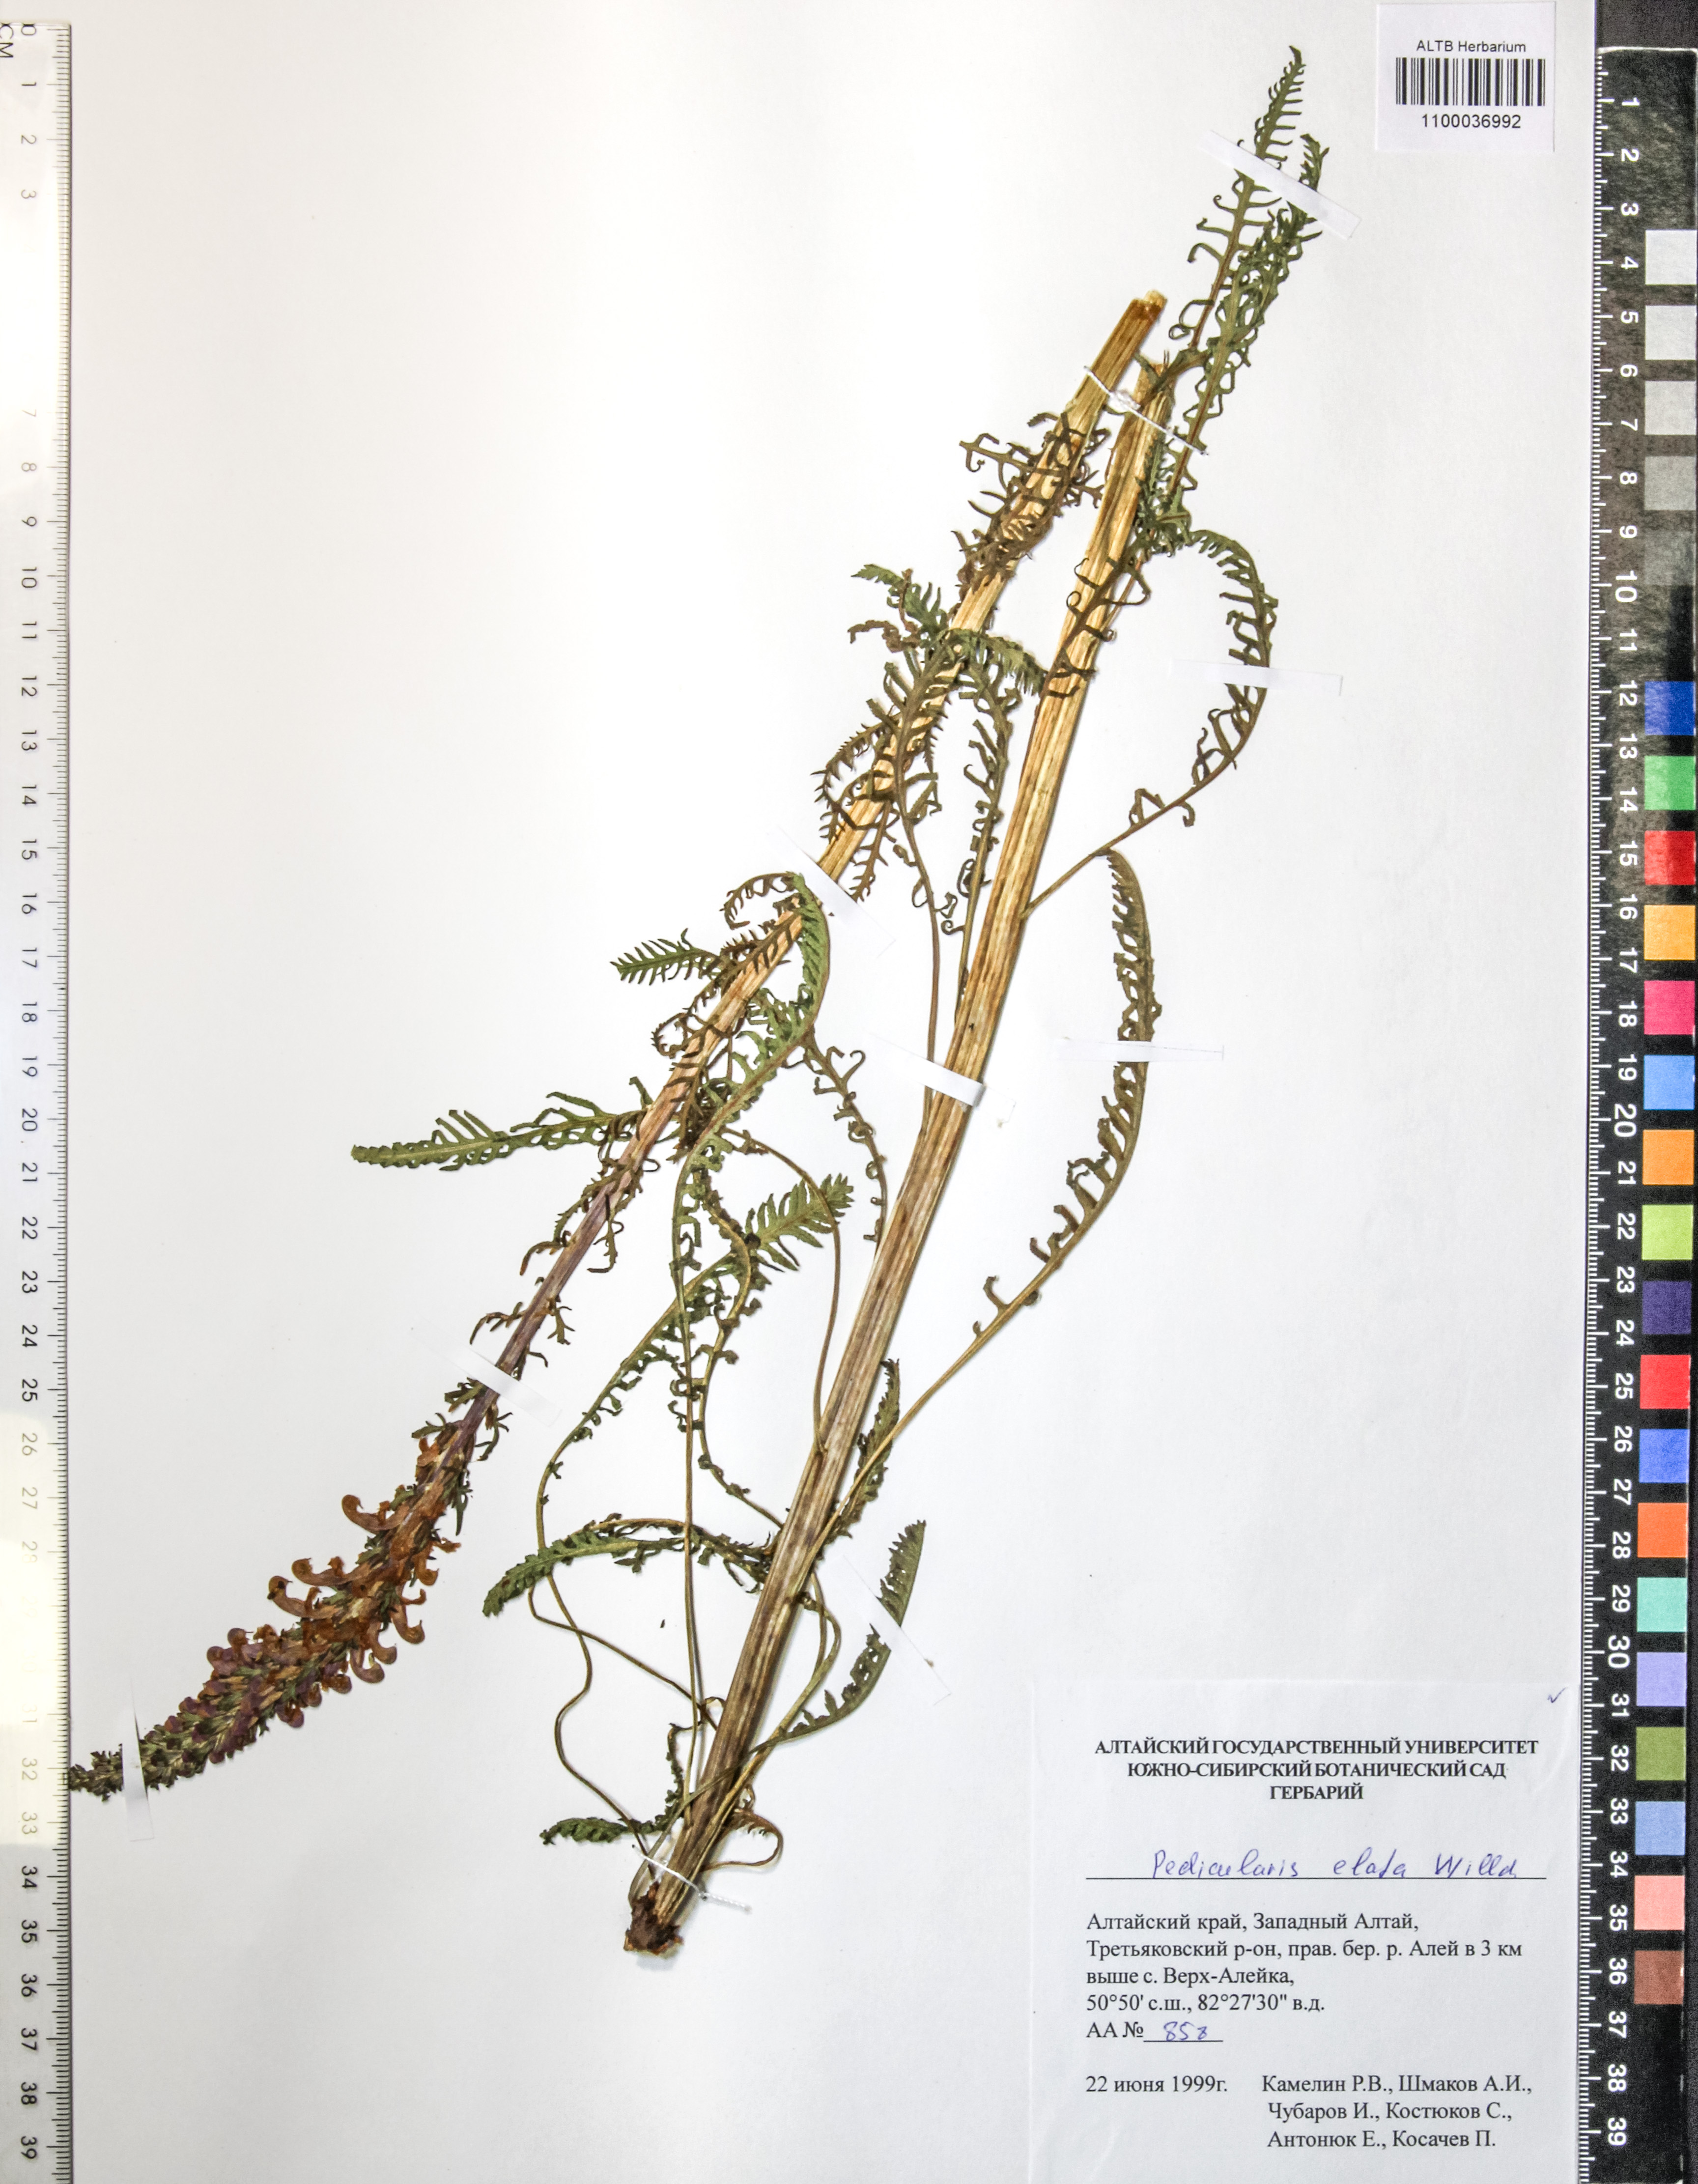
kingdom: Plantae
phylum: Tracheophyta
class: Magnoliopsida
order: Lamiales
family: Orobanchaceae
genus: Pedicularis
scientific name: Pedicularis elata
